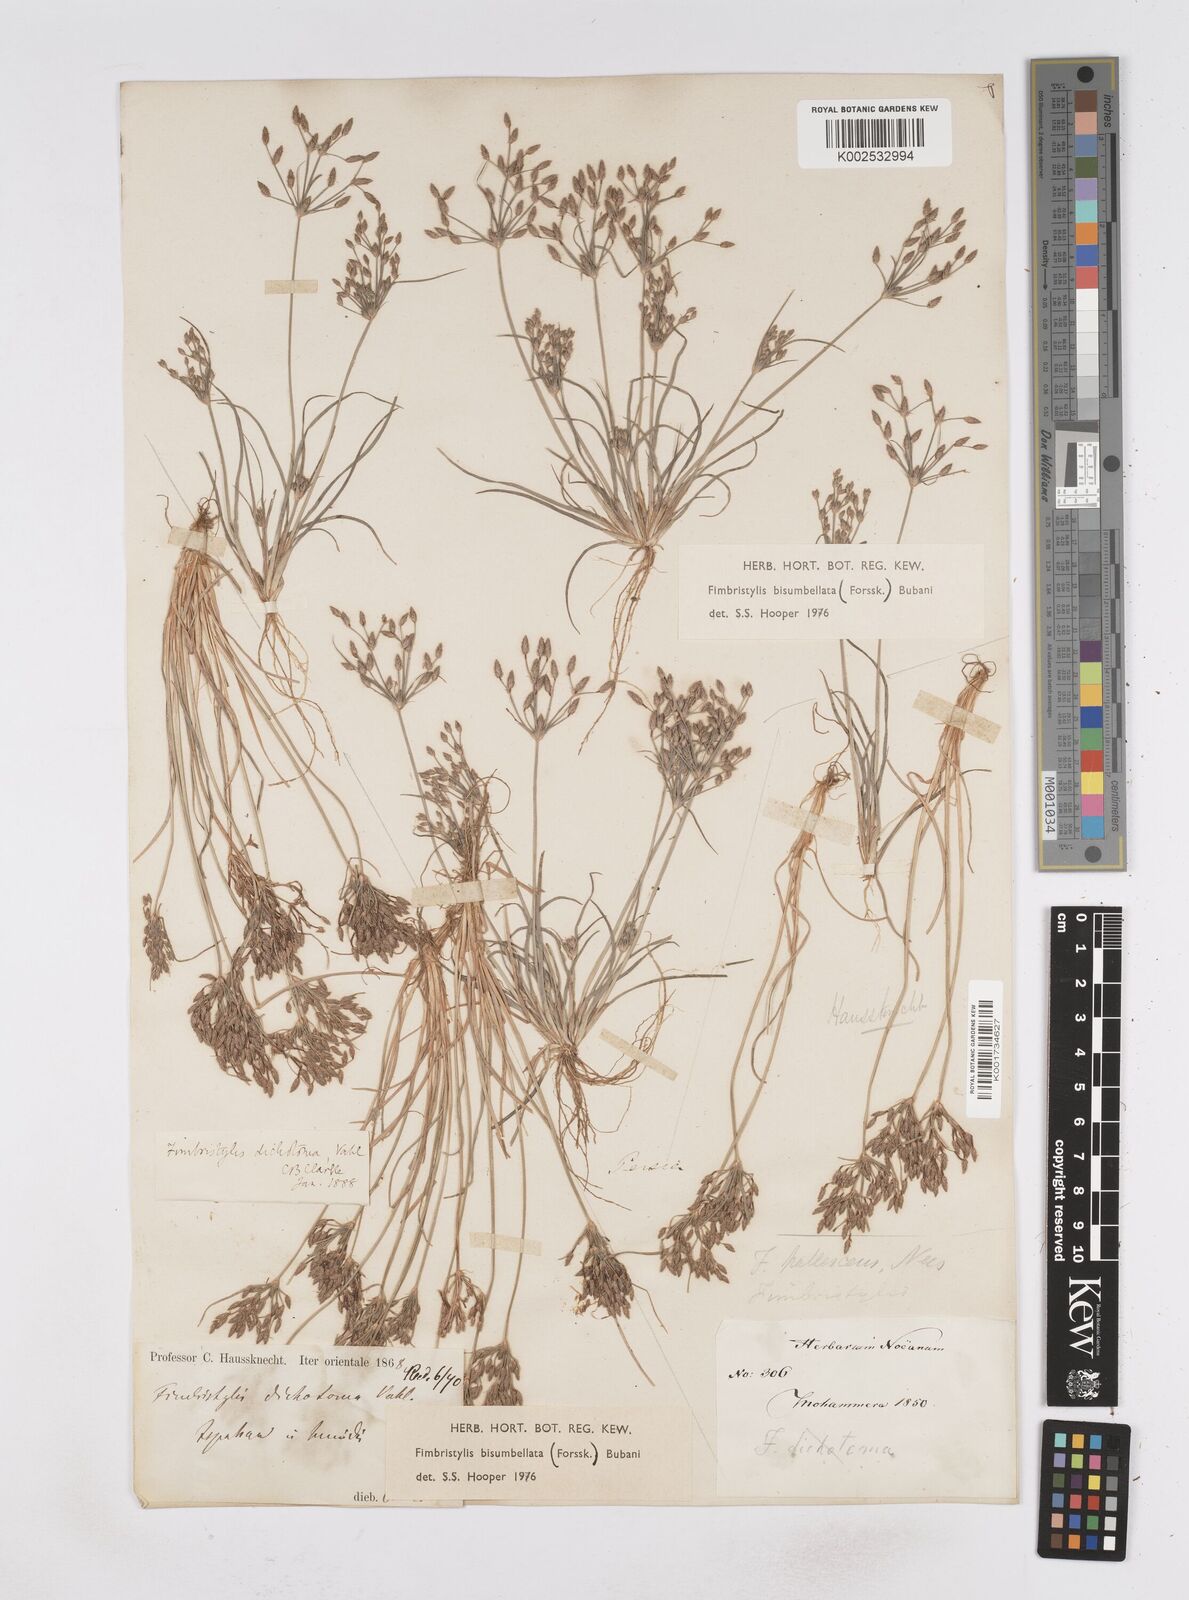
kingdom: Plantae
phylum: Tracheophyta
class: Liliopsida
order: Poales
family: Cyperaceae
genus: Fimbristylis
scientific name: Fimbristylis bisumbellata
